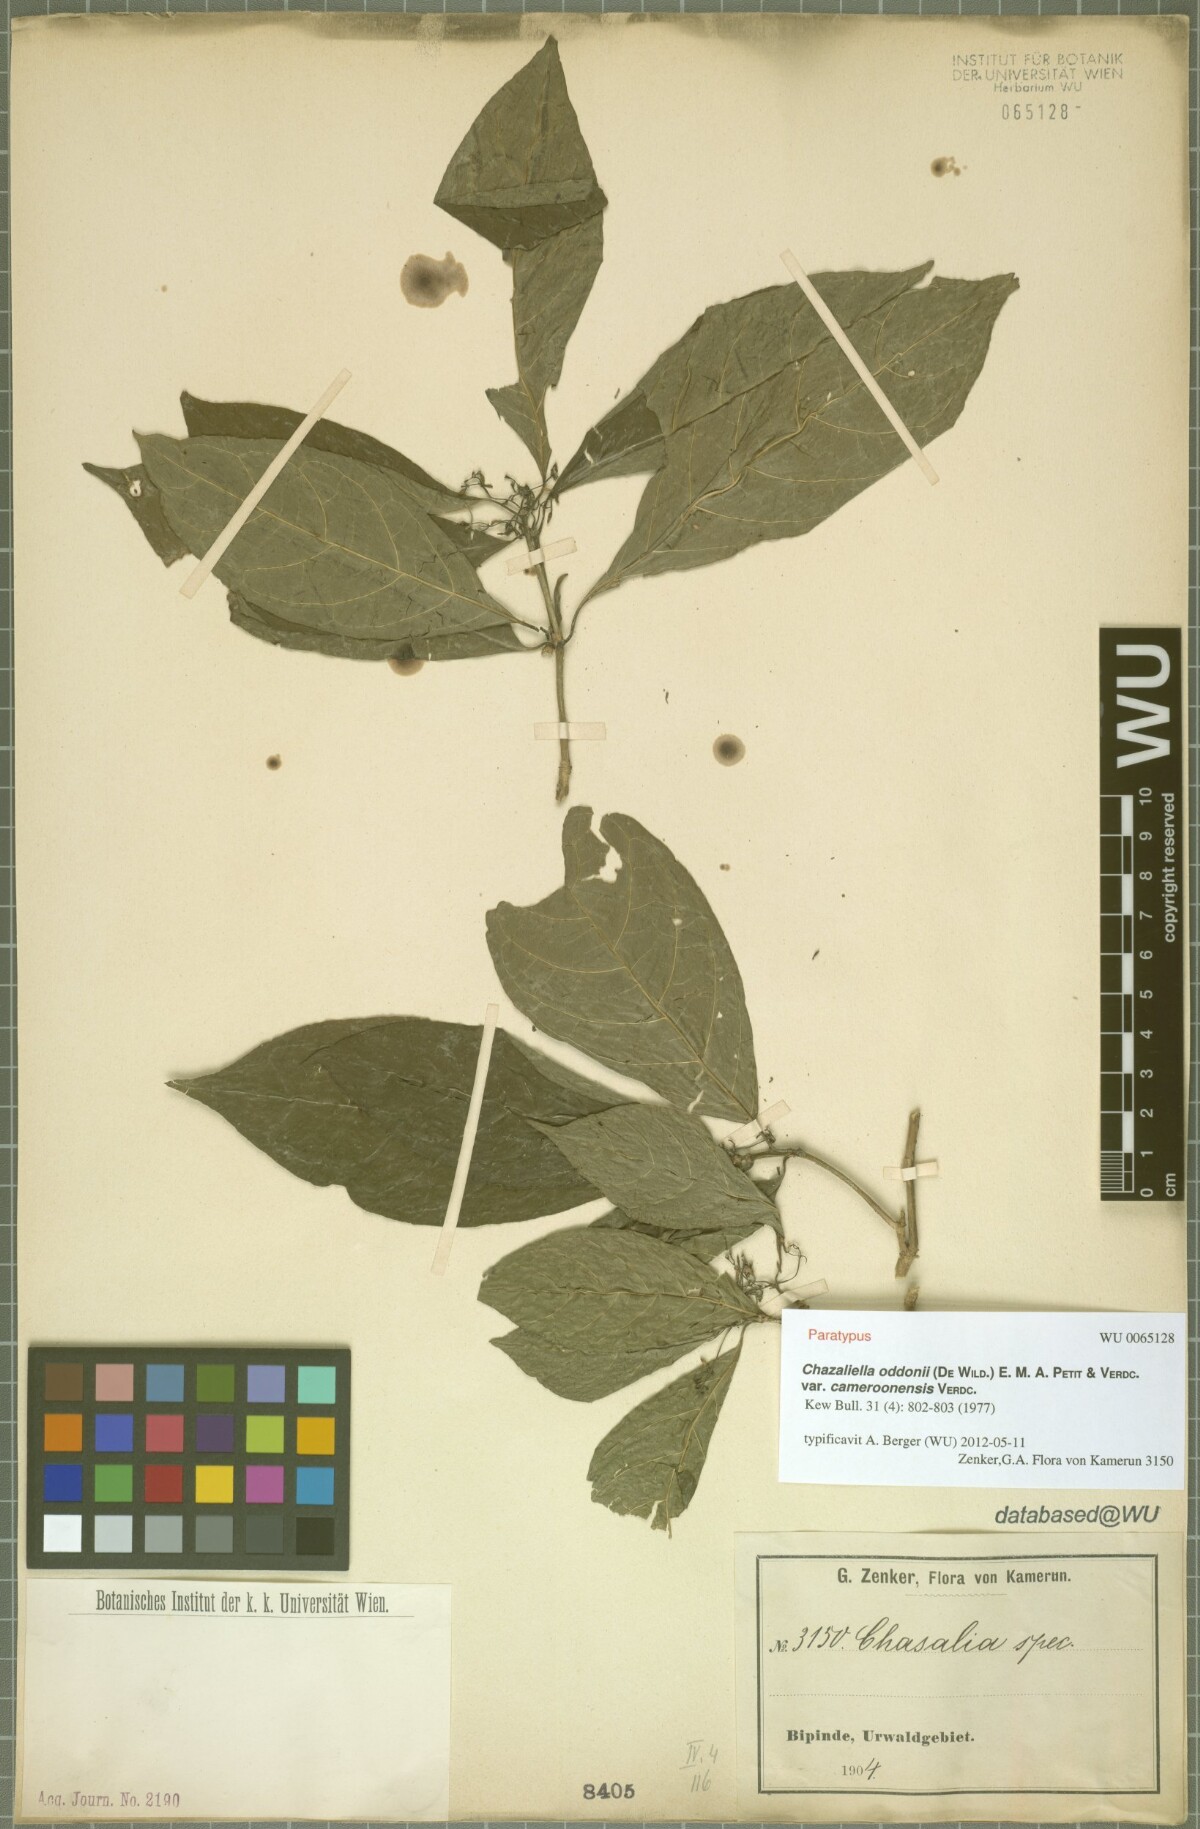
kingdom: Plantae
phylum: Tracheophyta
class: Magnoliopsida
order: Gentianales
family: Rubiaceae
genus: Eumachia
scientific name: Eumachia oddonii
